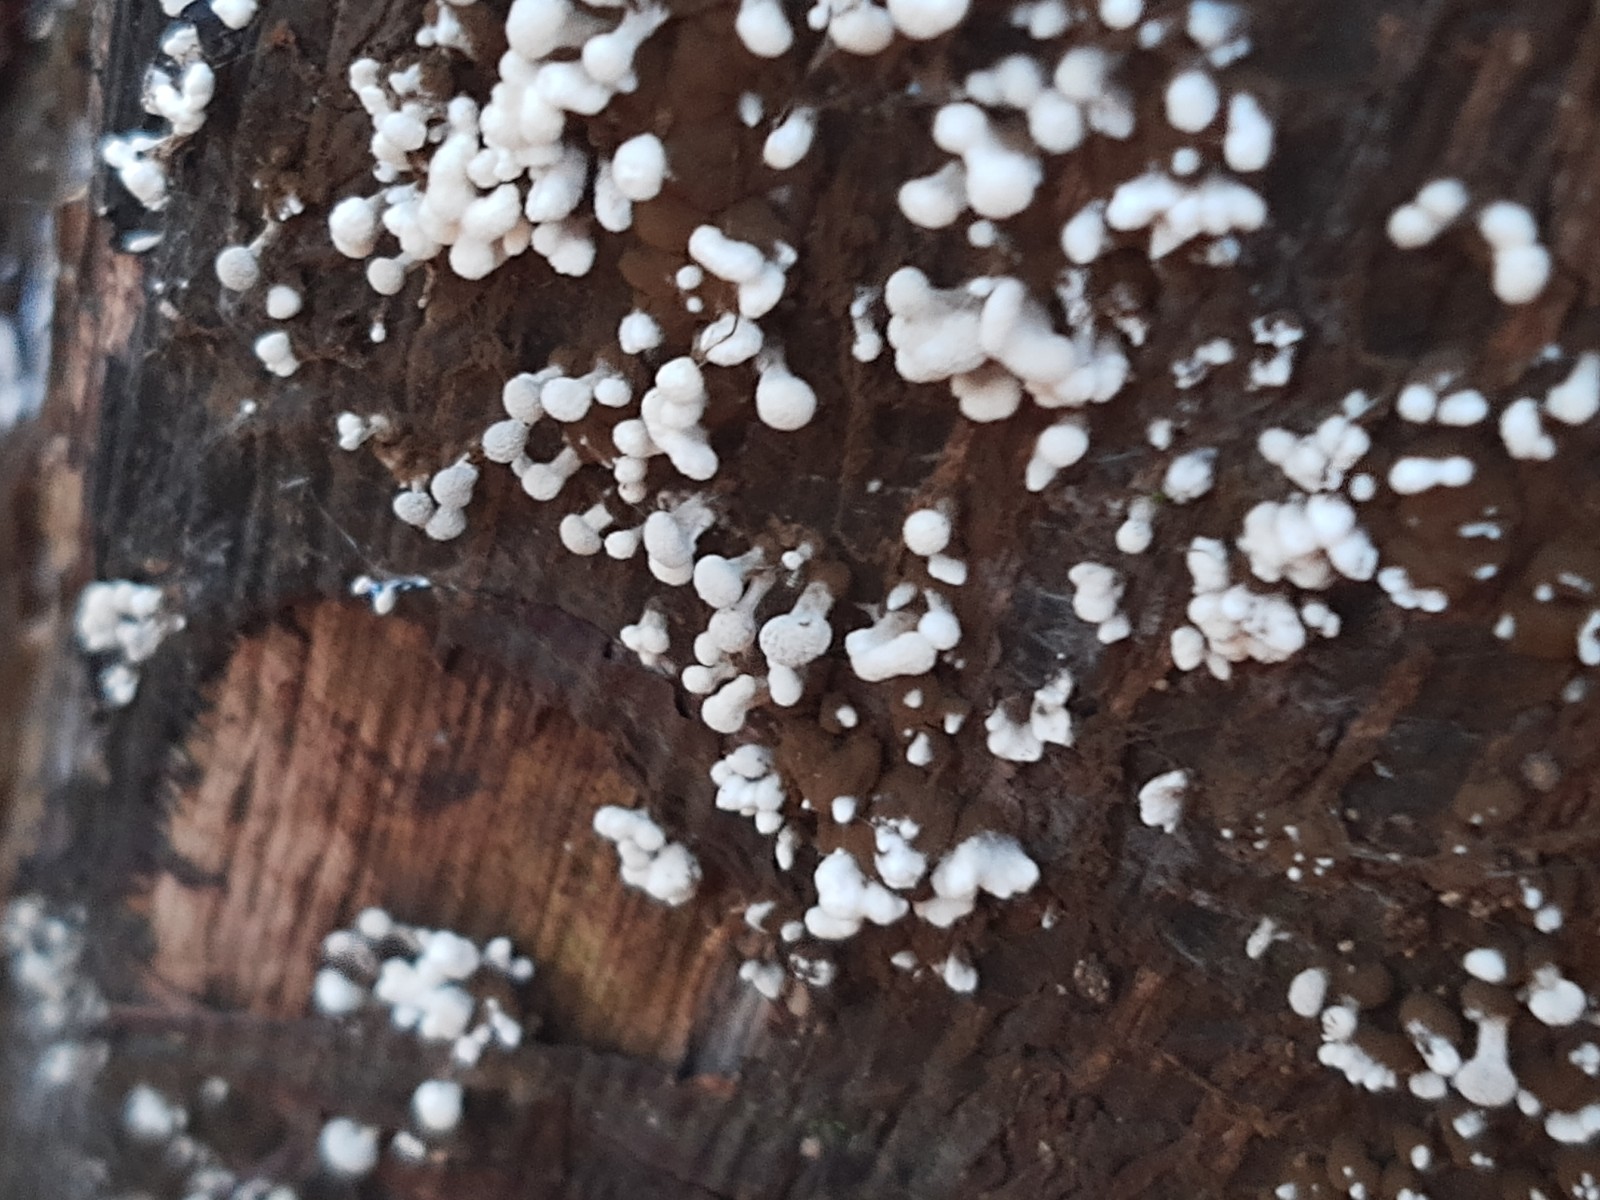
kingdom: Fungi
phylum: Basidiomycota
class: Atractiellomycetes
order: Atractiellales
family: Phleogenaceae
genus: Phleogena
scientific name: Phleogena faginea
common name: pudderkølle
